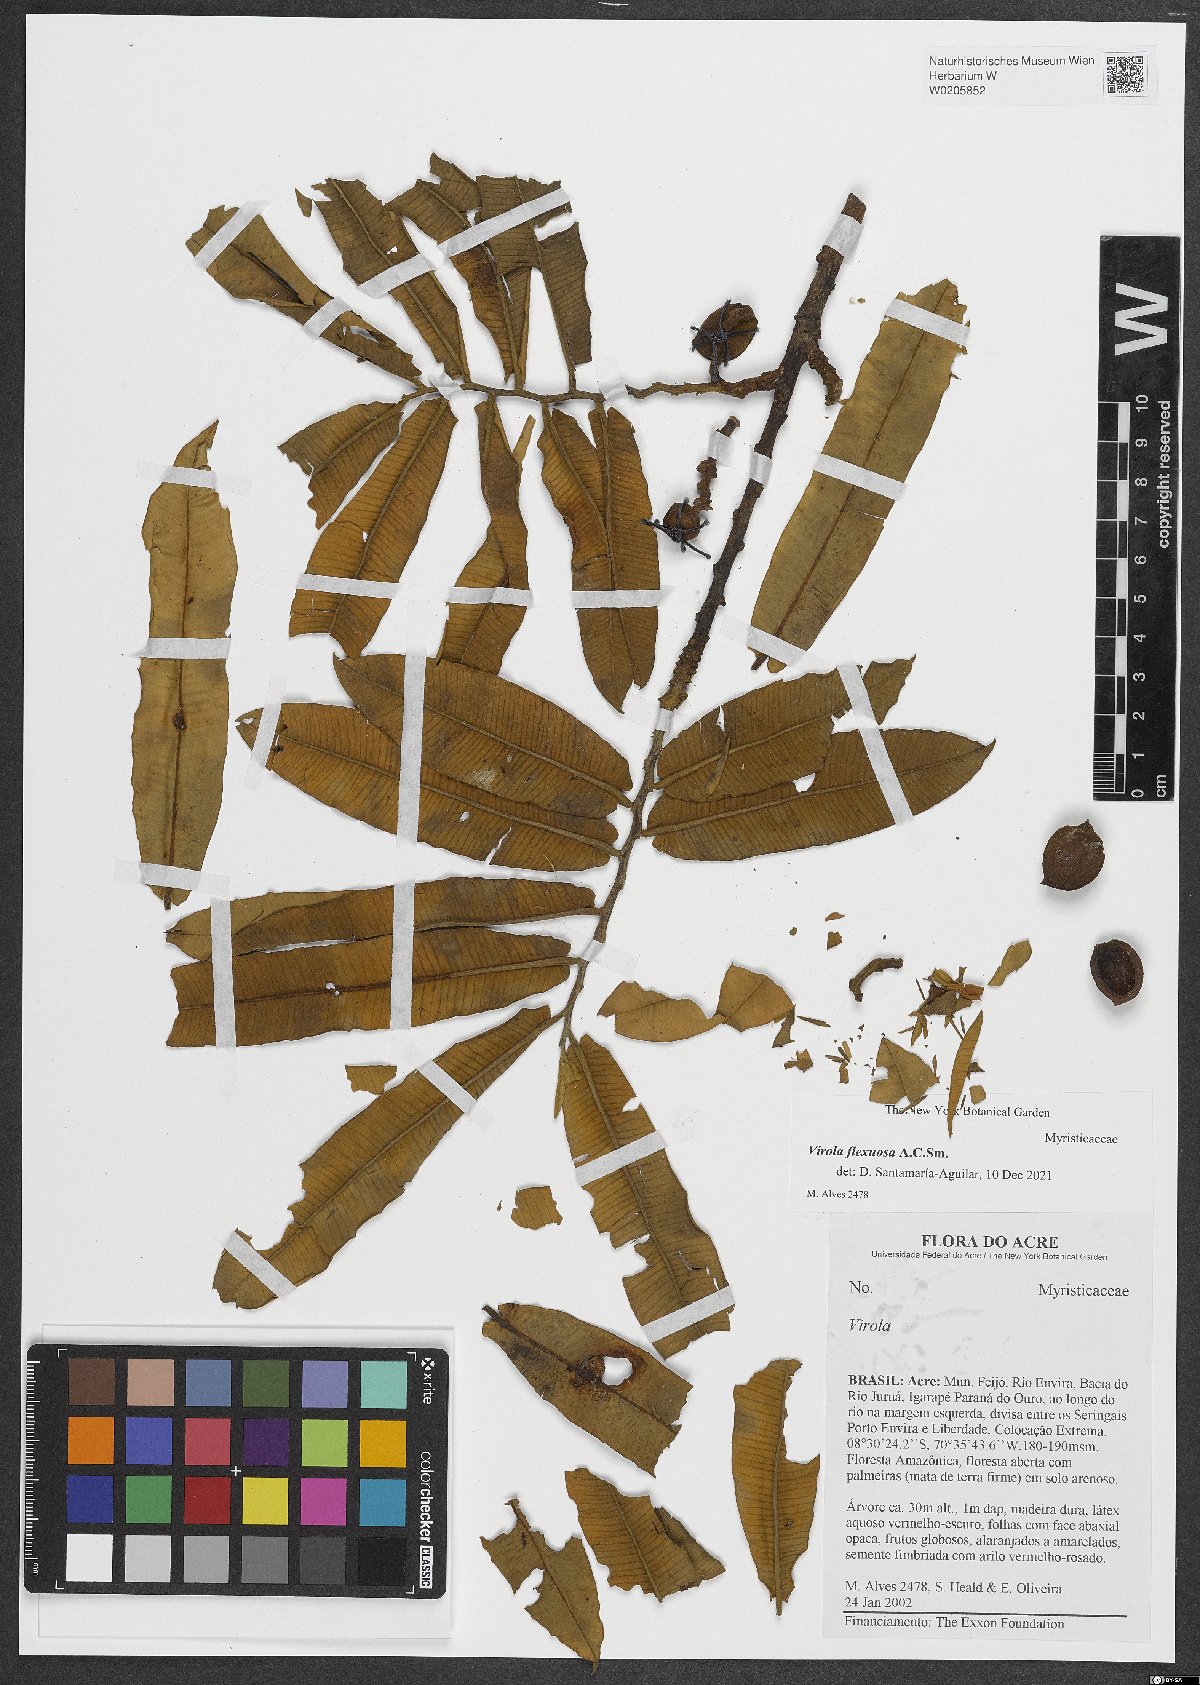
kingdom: Plantae
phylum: Tracheophyta
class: Magnoliopsida
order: Magnoliales
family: Myristicaceae
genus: Virola
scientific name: Virola flexuosa
